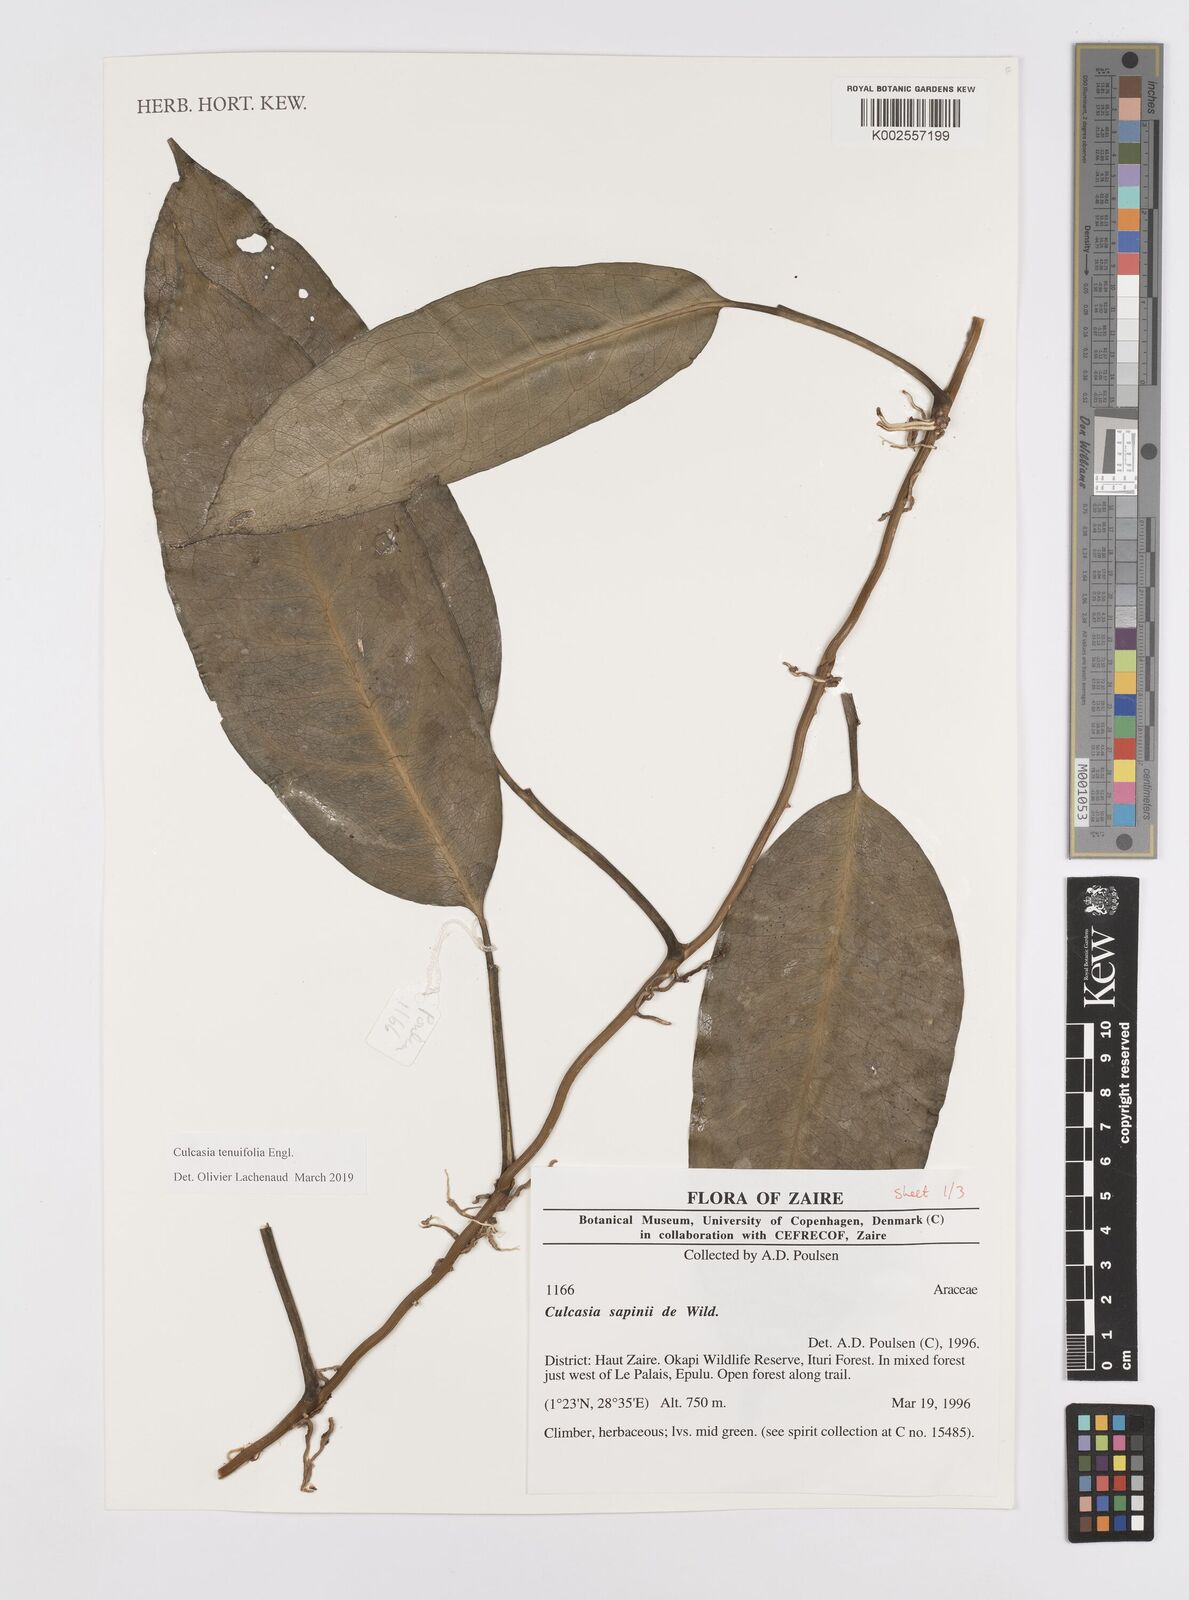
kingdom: Plantae
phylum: Tracheophyta
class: Liliopsida
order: Alismatales
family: Araceae
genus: Culcasia
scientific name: Culcasia tenuifolia
